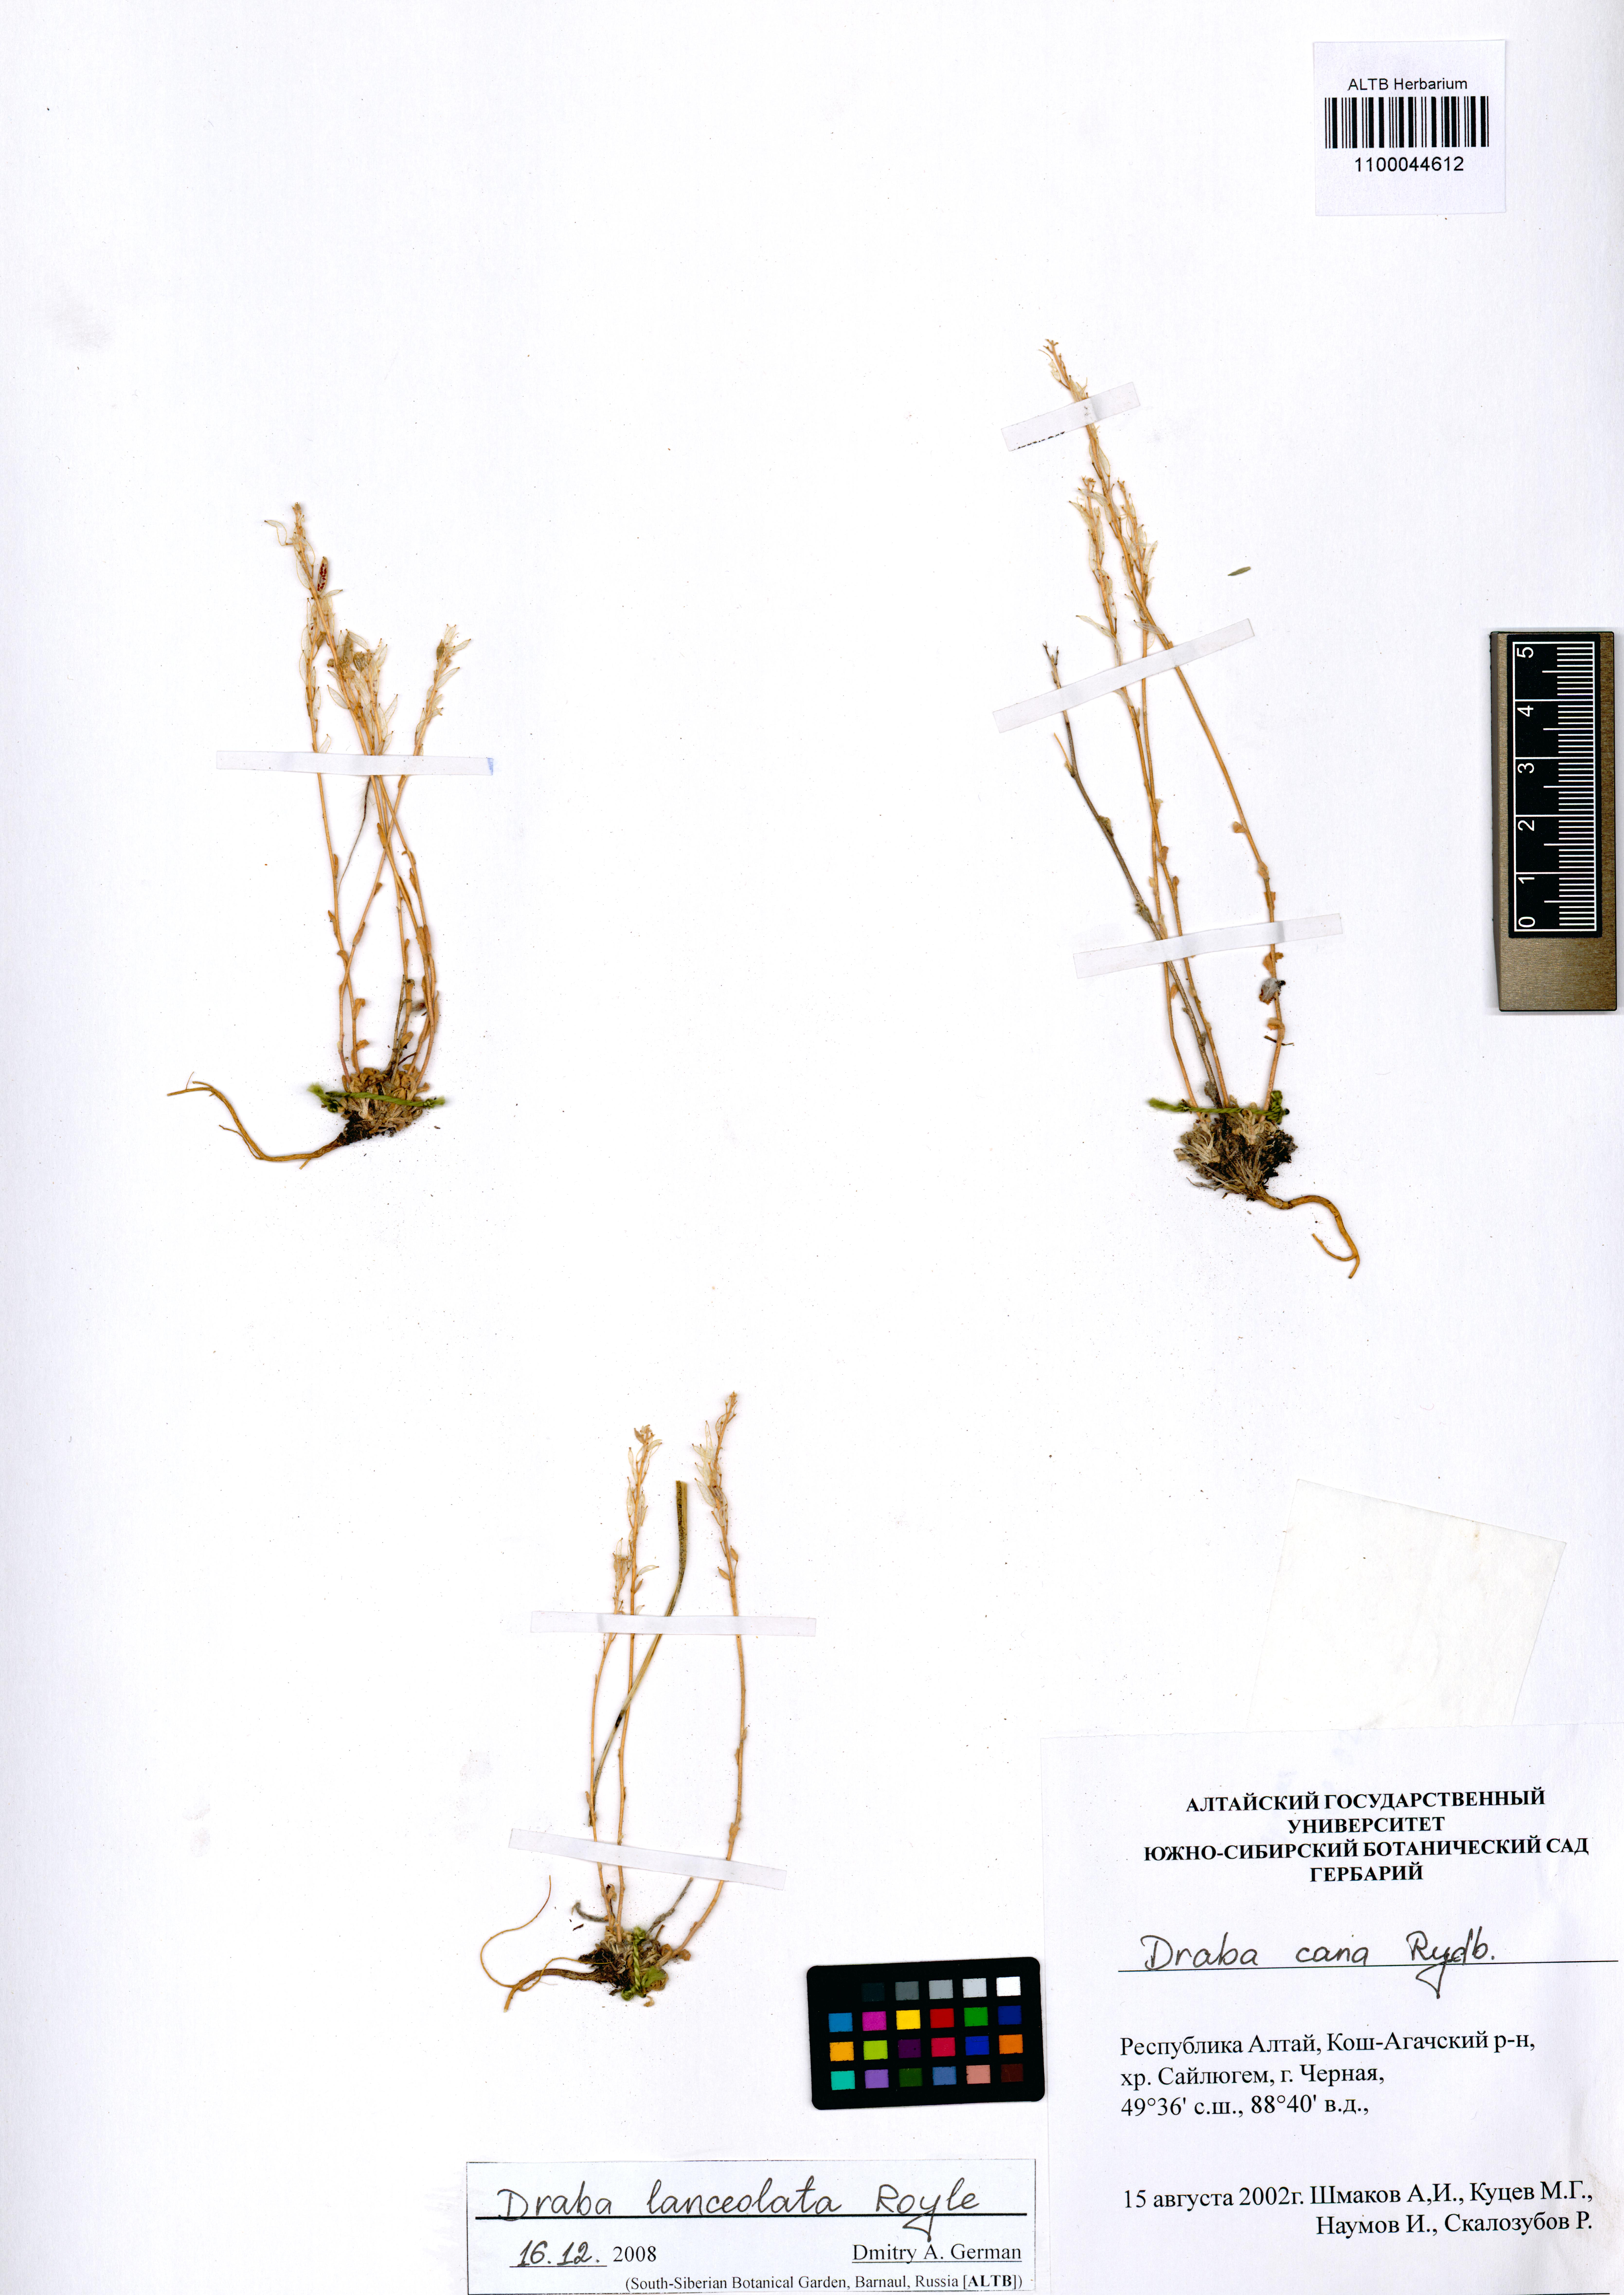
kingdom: Plantae
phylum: Tracheophyta
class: Magnoliopsida
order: Brassicales
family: Brassicaceae
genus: Draba
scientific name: Draba lanceolata
